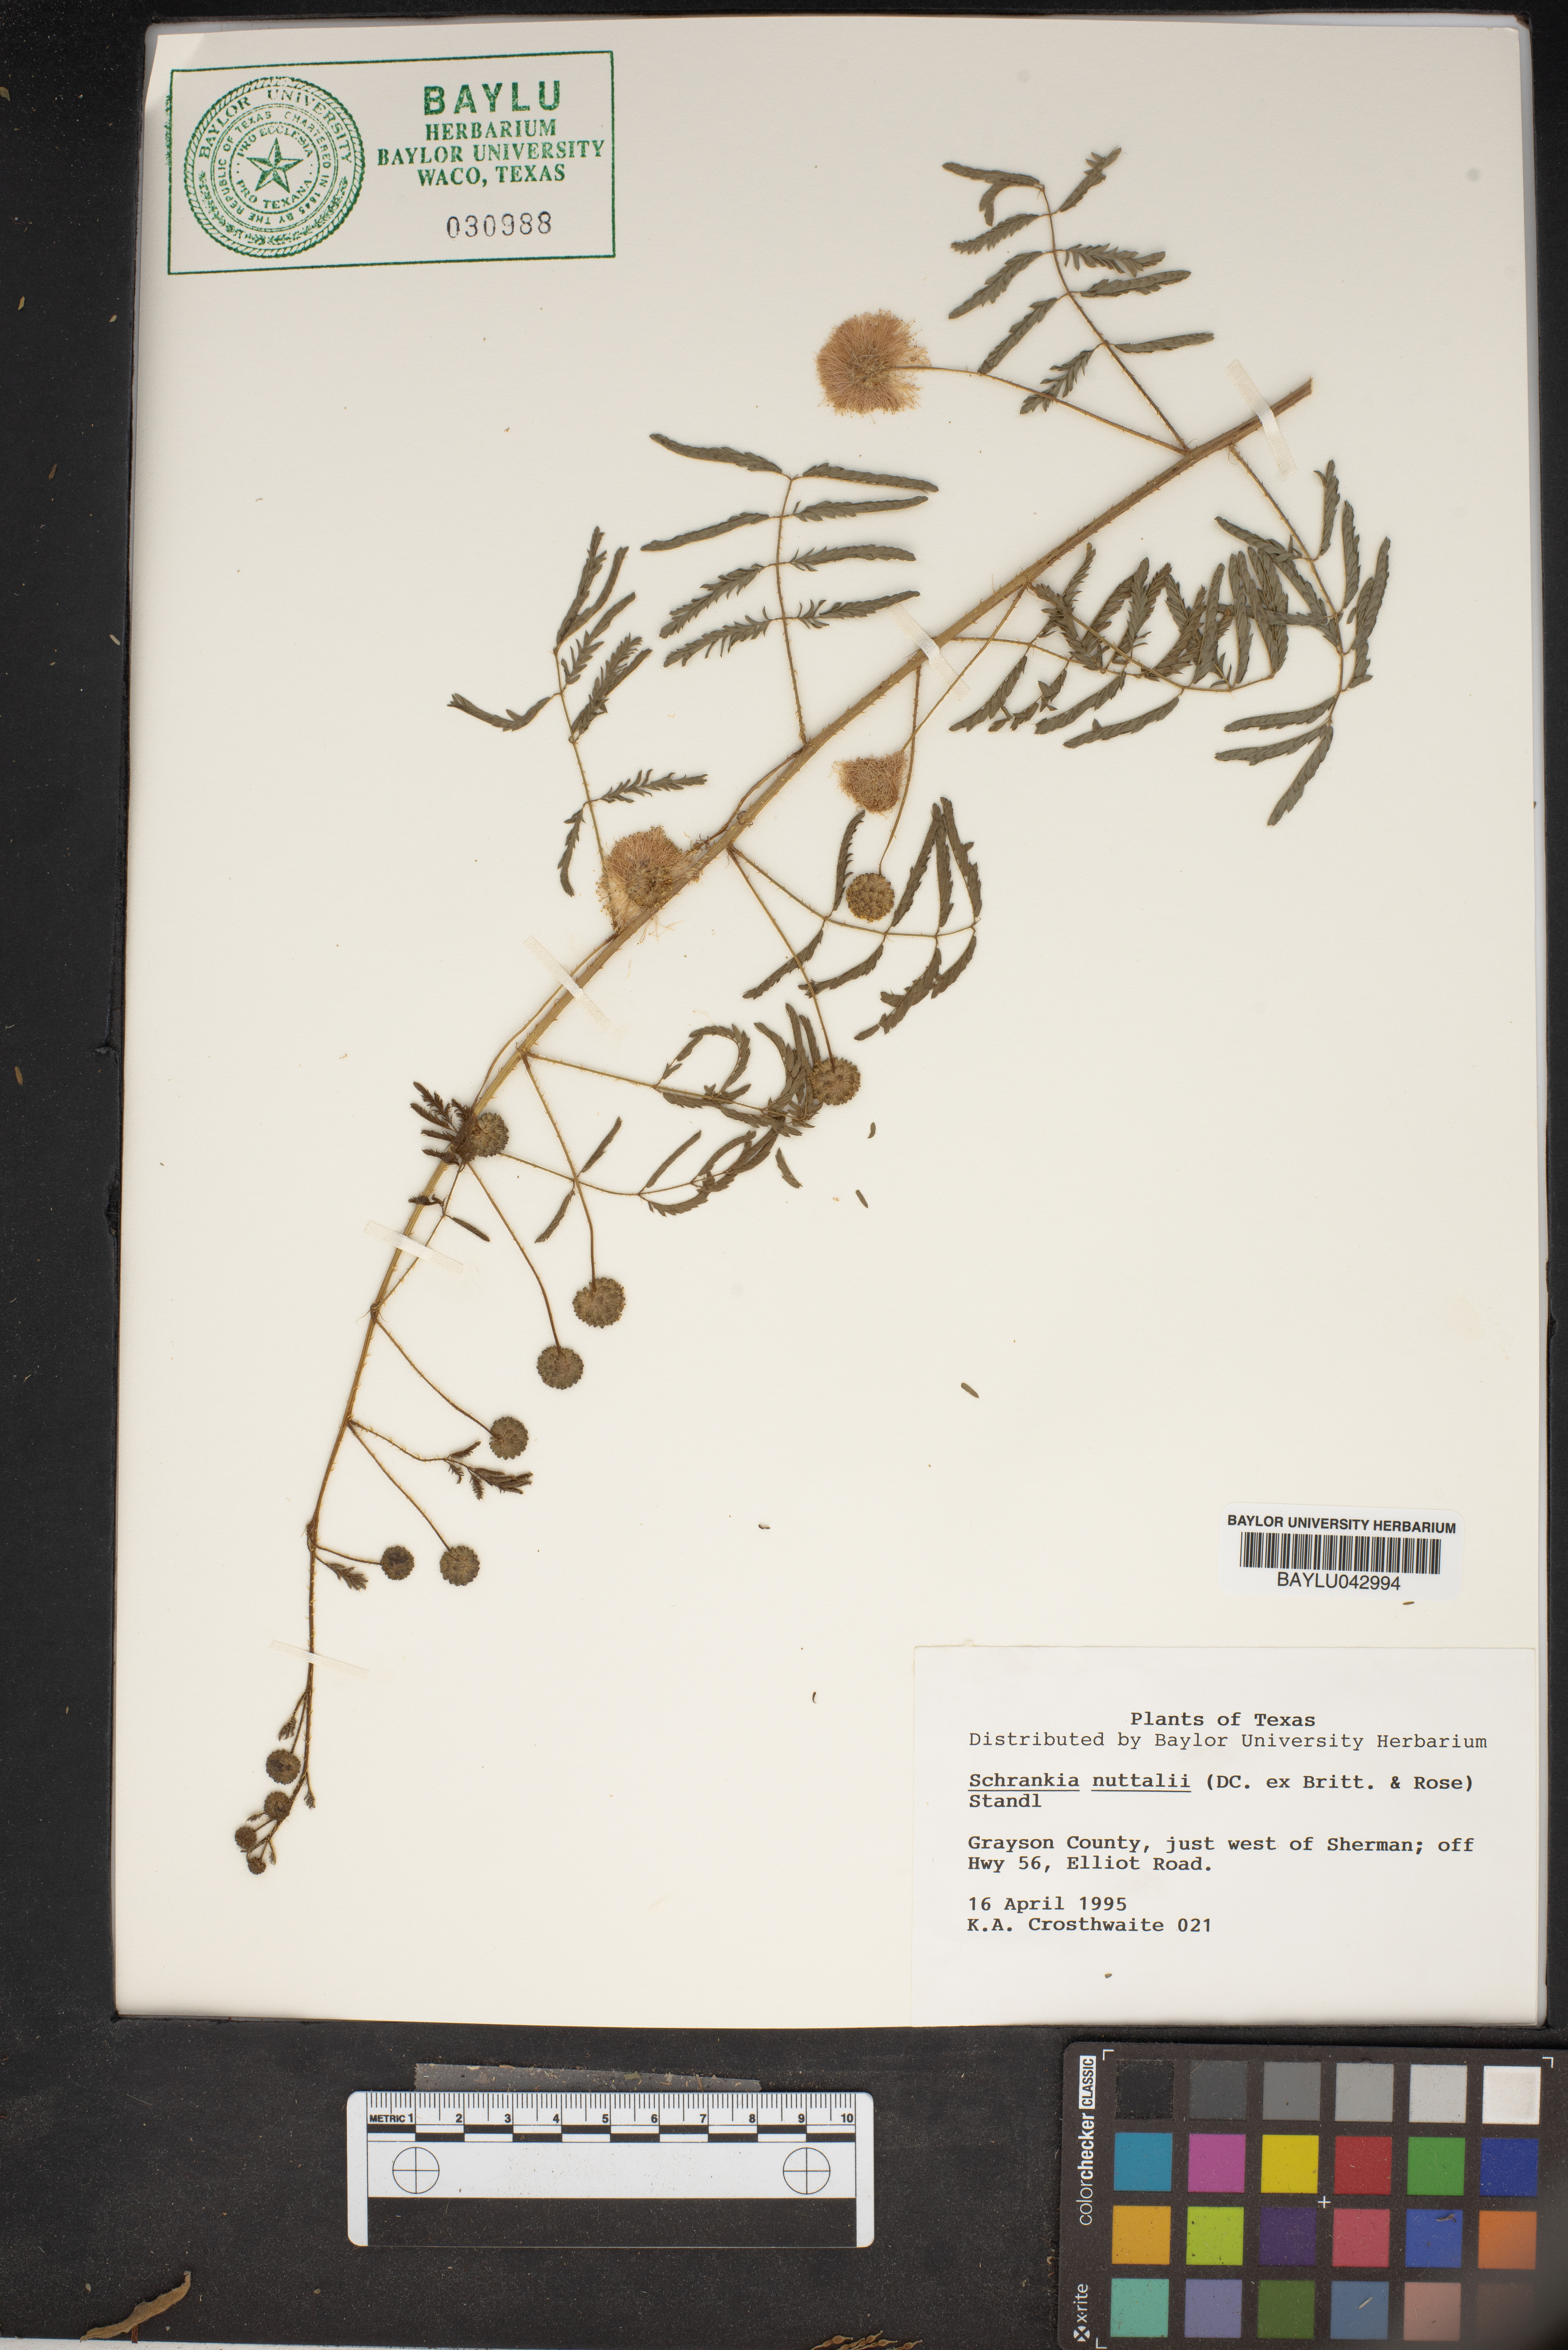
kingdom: Plantae
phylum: Tracheophyta
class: Magnoliopsida
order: Fabales
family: Fabaceae
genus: Mimosa
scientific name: Mimosa quadrivalvis
